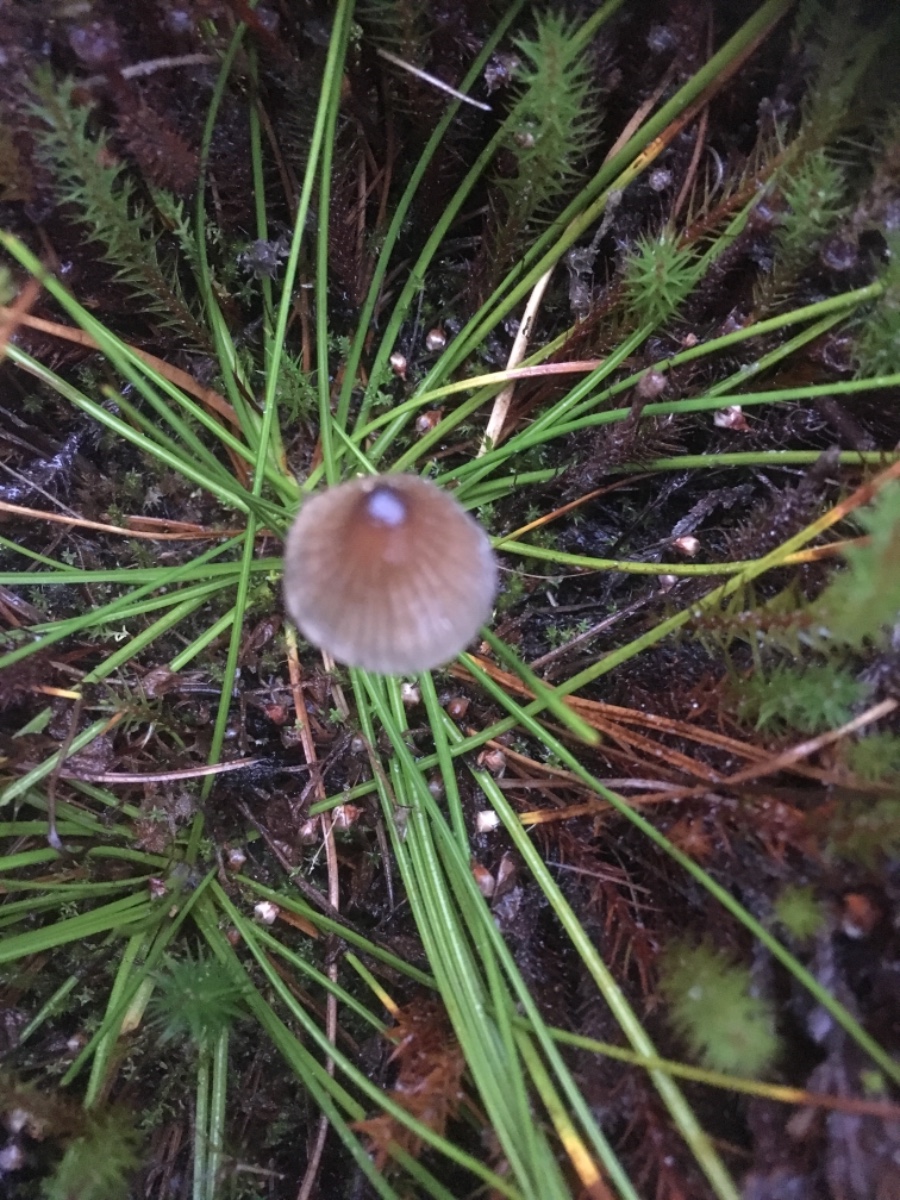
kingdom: Fungi
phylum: Basidiomycota
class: Agaricomycetes
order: Agaricales
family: Mycenaceae
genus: Mycena
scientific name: Mycena galopus
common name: hvidmælket huesvamp
